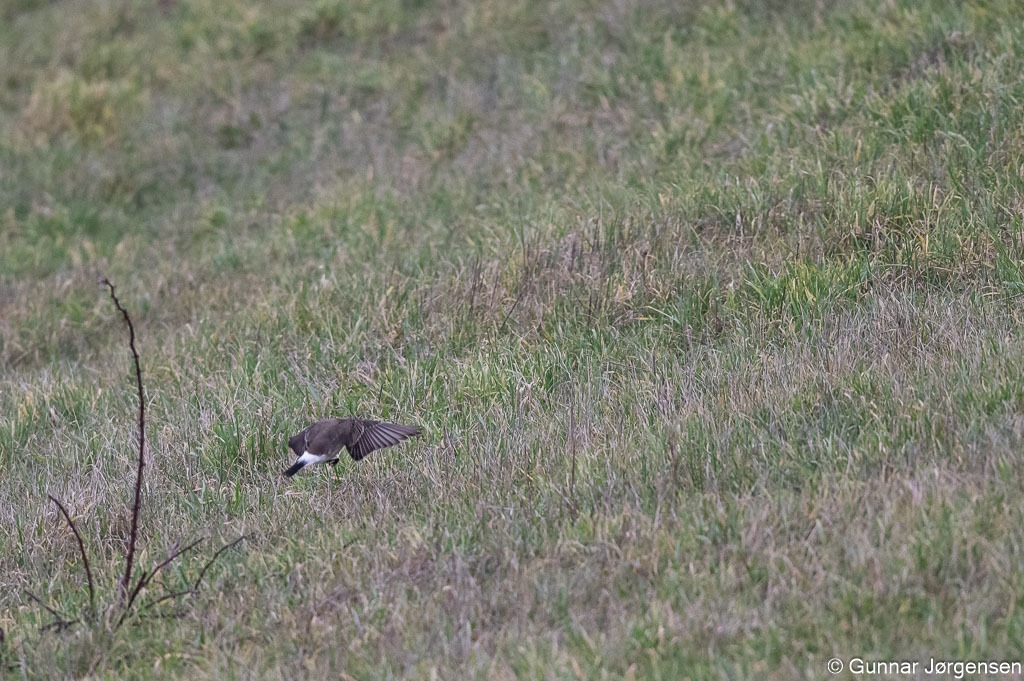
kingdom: Animalia
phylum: Chordata
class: Aves
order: Passeriformes
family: Muscicapidae
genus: Oenanthe
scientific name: Oenanthe oenanthe
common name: Stenpikker
